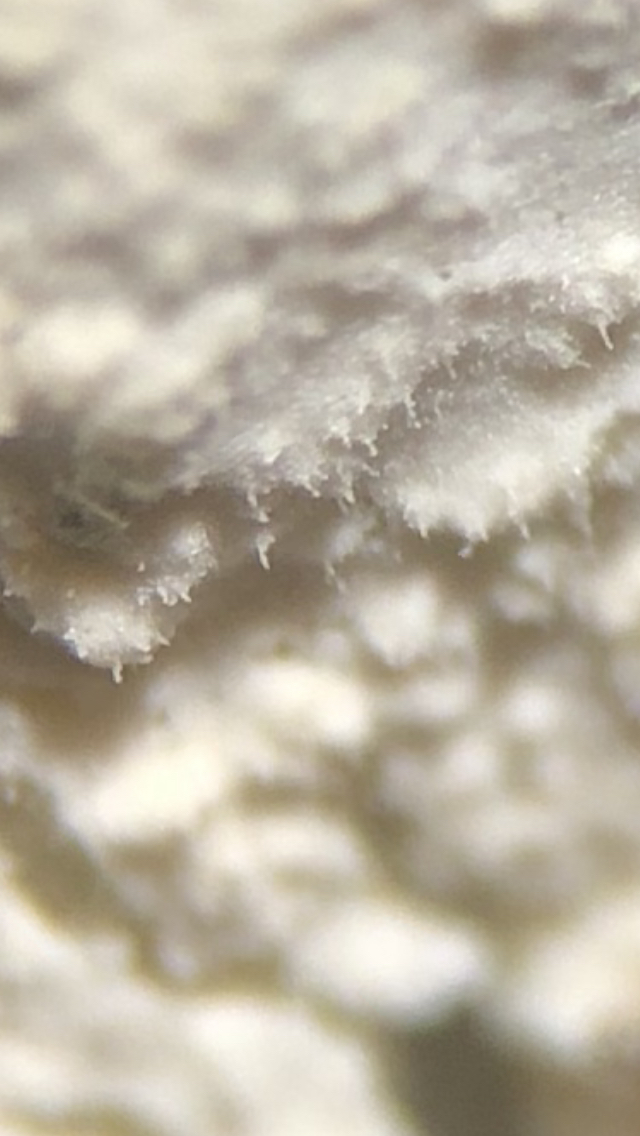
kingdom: Fungi
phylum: Basidiomycota
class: Agaricomycetes
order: Polyporales
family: Hyphodermataceae
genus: Hyphoderma
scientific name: Hyphoderma setigerum
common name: håret kalkskind
